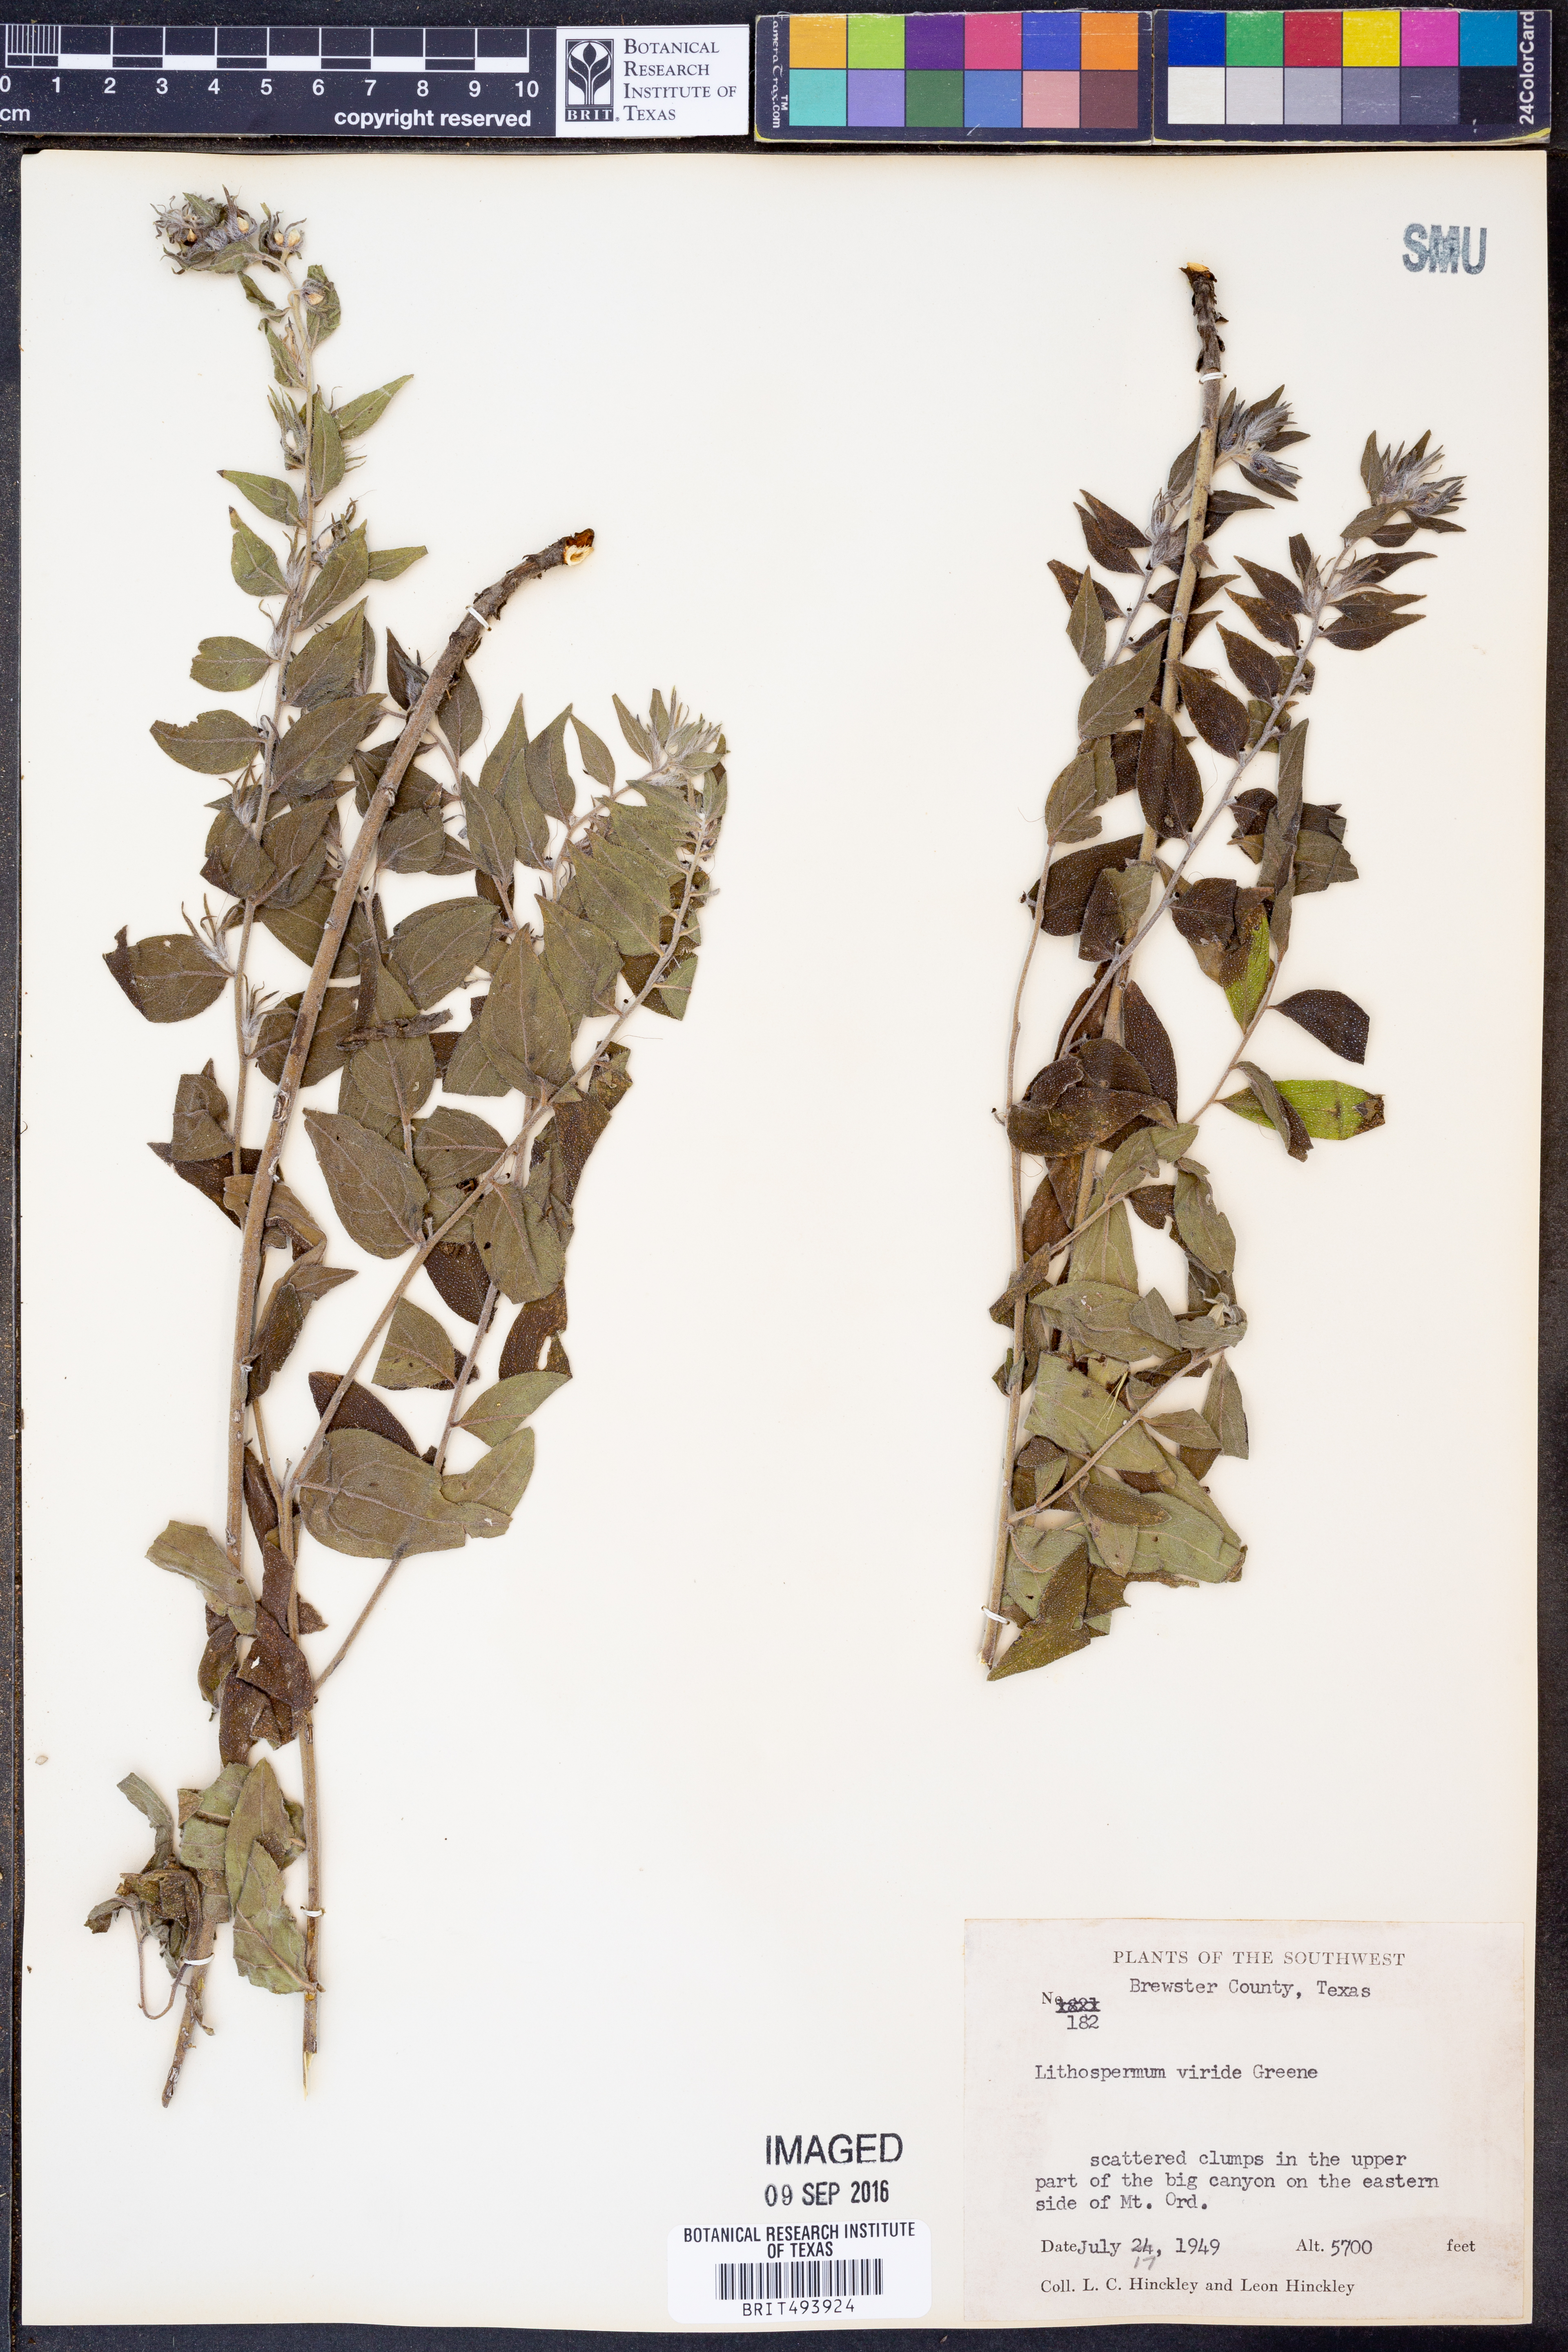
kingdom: Plantae
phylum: Tracheophyta
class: Magnoliopsida
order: Boraginales
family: Boraginaceae
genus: Lithospermum
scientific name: Lithospermum viride
